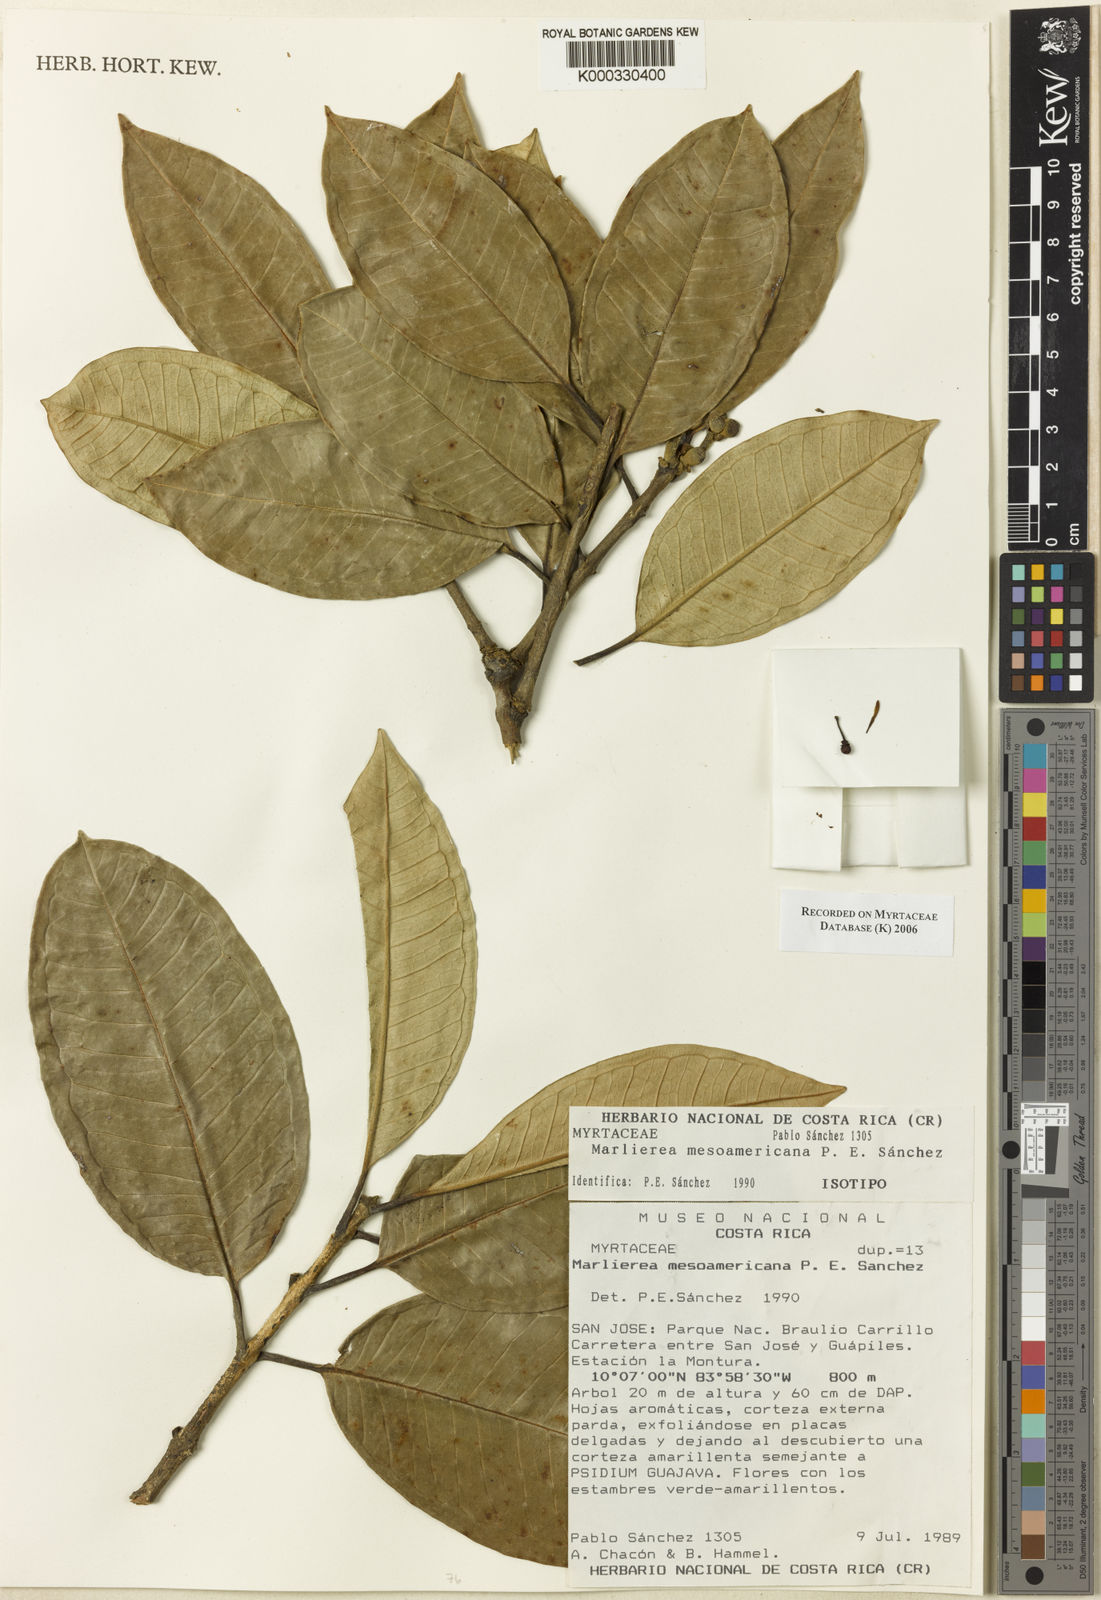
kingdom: Plantae
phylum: Tracheophyta
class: Magnoliopsida
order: Myrtales
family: Myrtaceae
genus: Marlierea
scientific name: Marlierea
